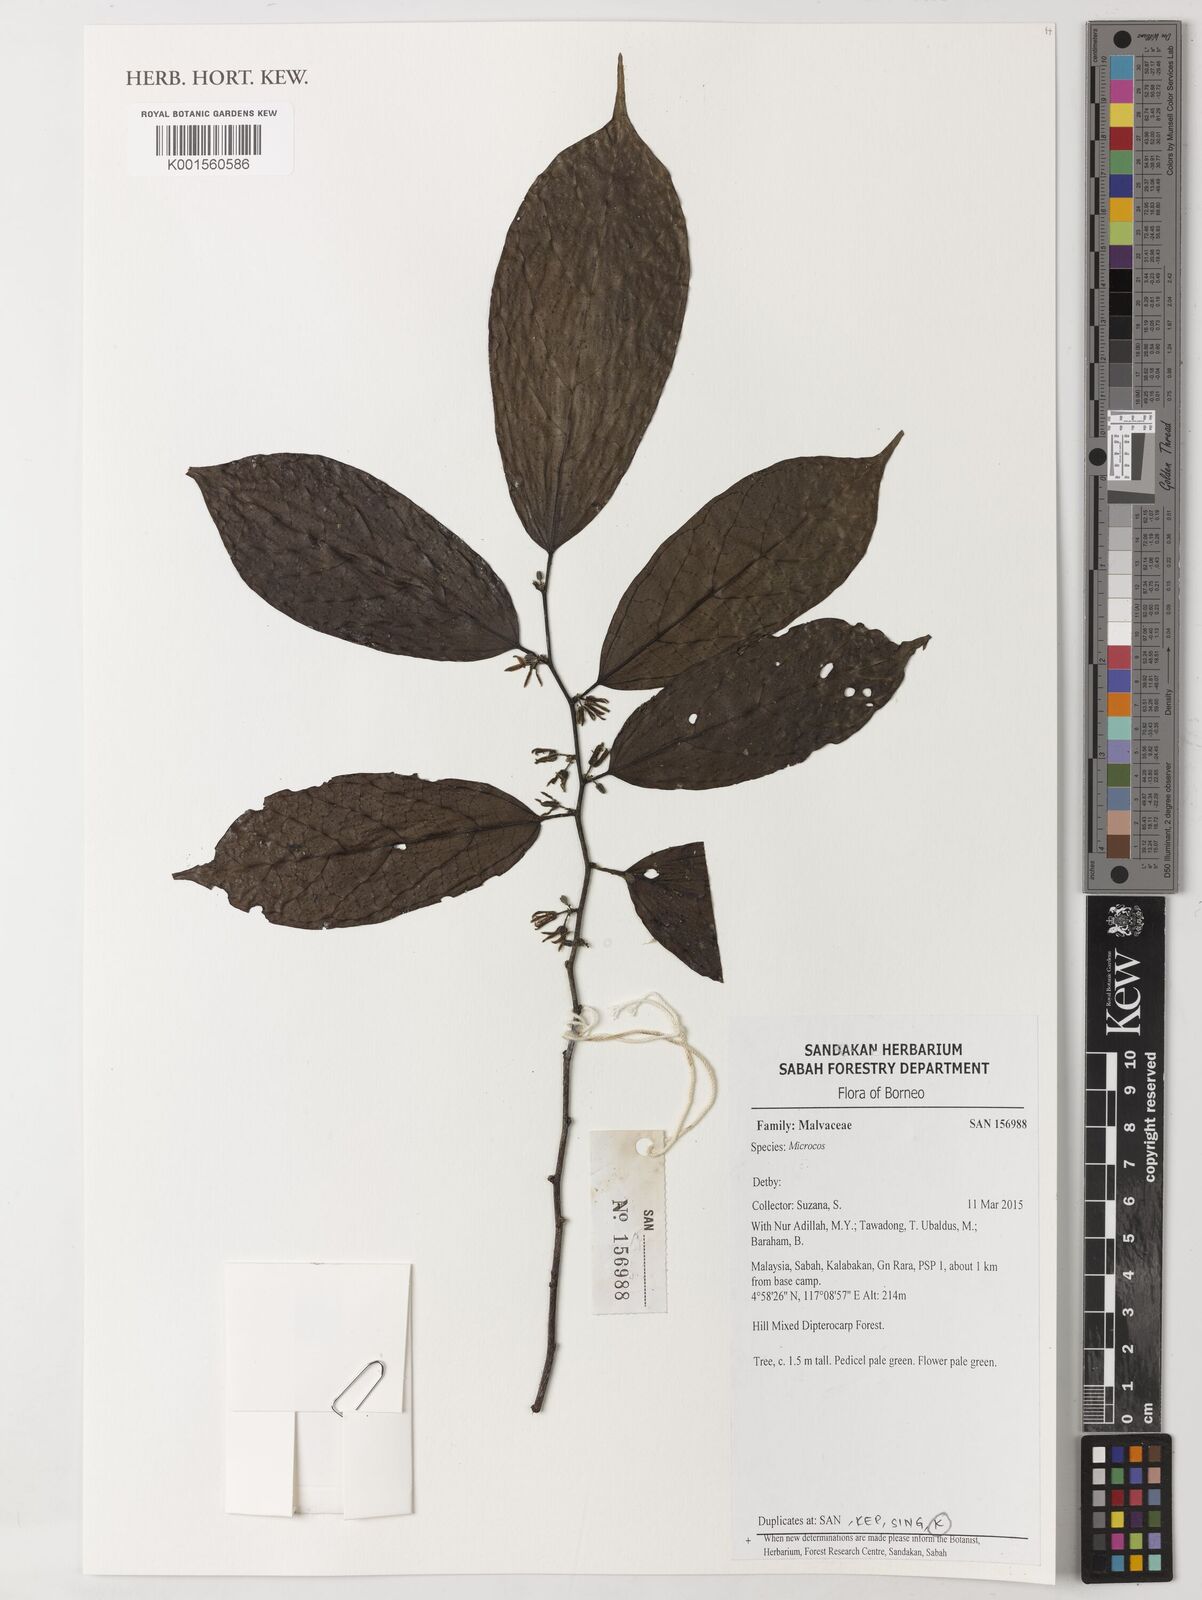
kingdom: Plantae
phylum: Tracheophyta
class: Magnoliopsida
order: Malvales
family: Malvaceae
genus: Microcos
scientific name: Microcos
